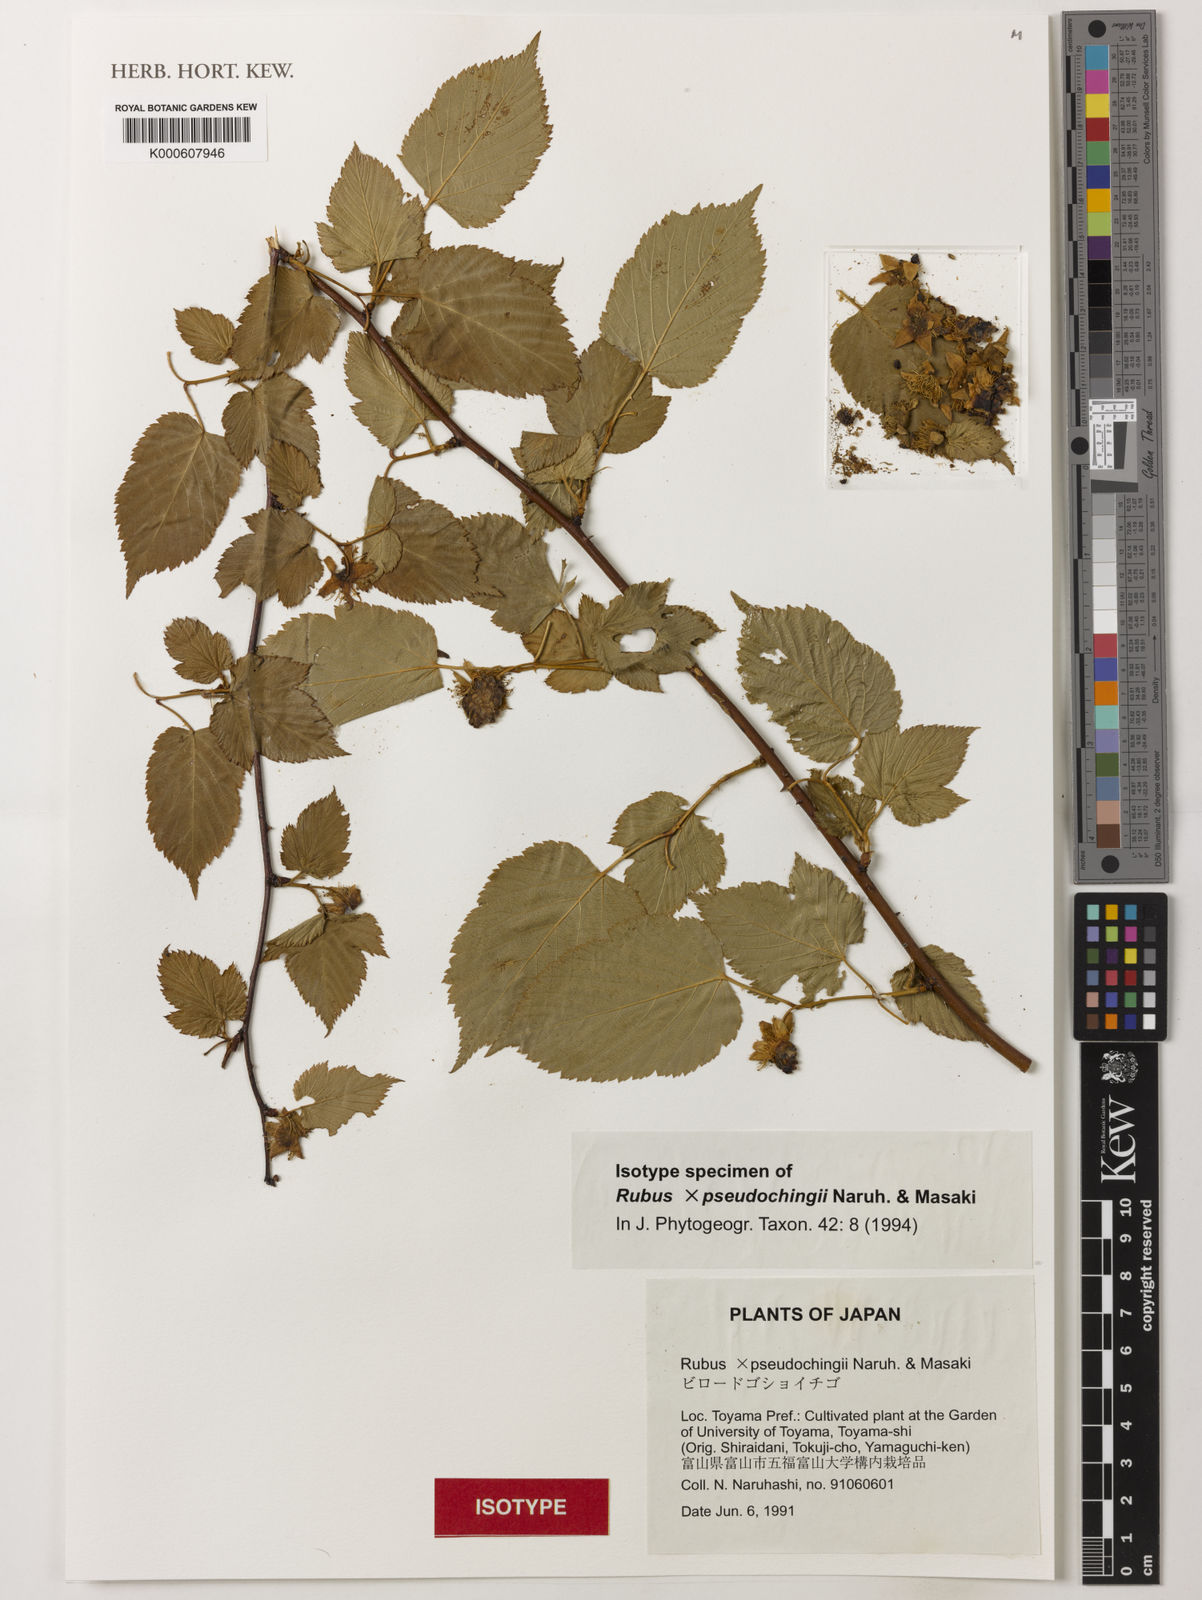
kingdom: Plantae
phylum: Tracheophyta
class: Magnoliopsida
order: Rosales
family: Rosaceae
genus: Rubus
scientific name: Rubus pseudochingii
